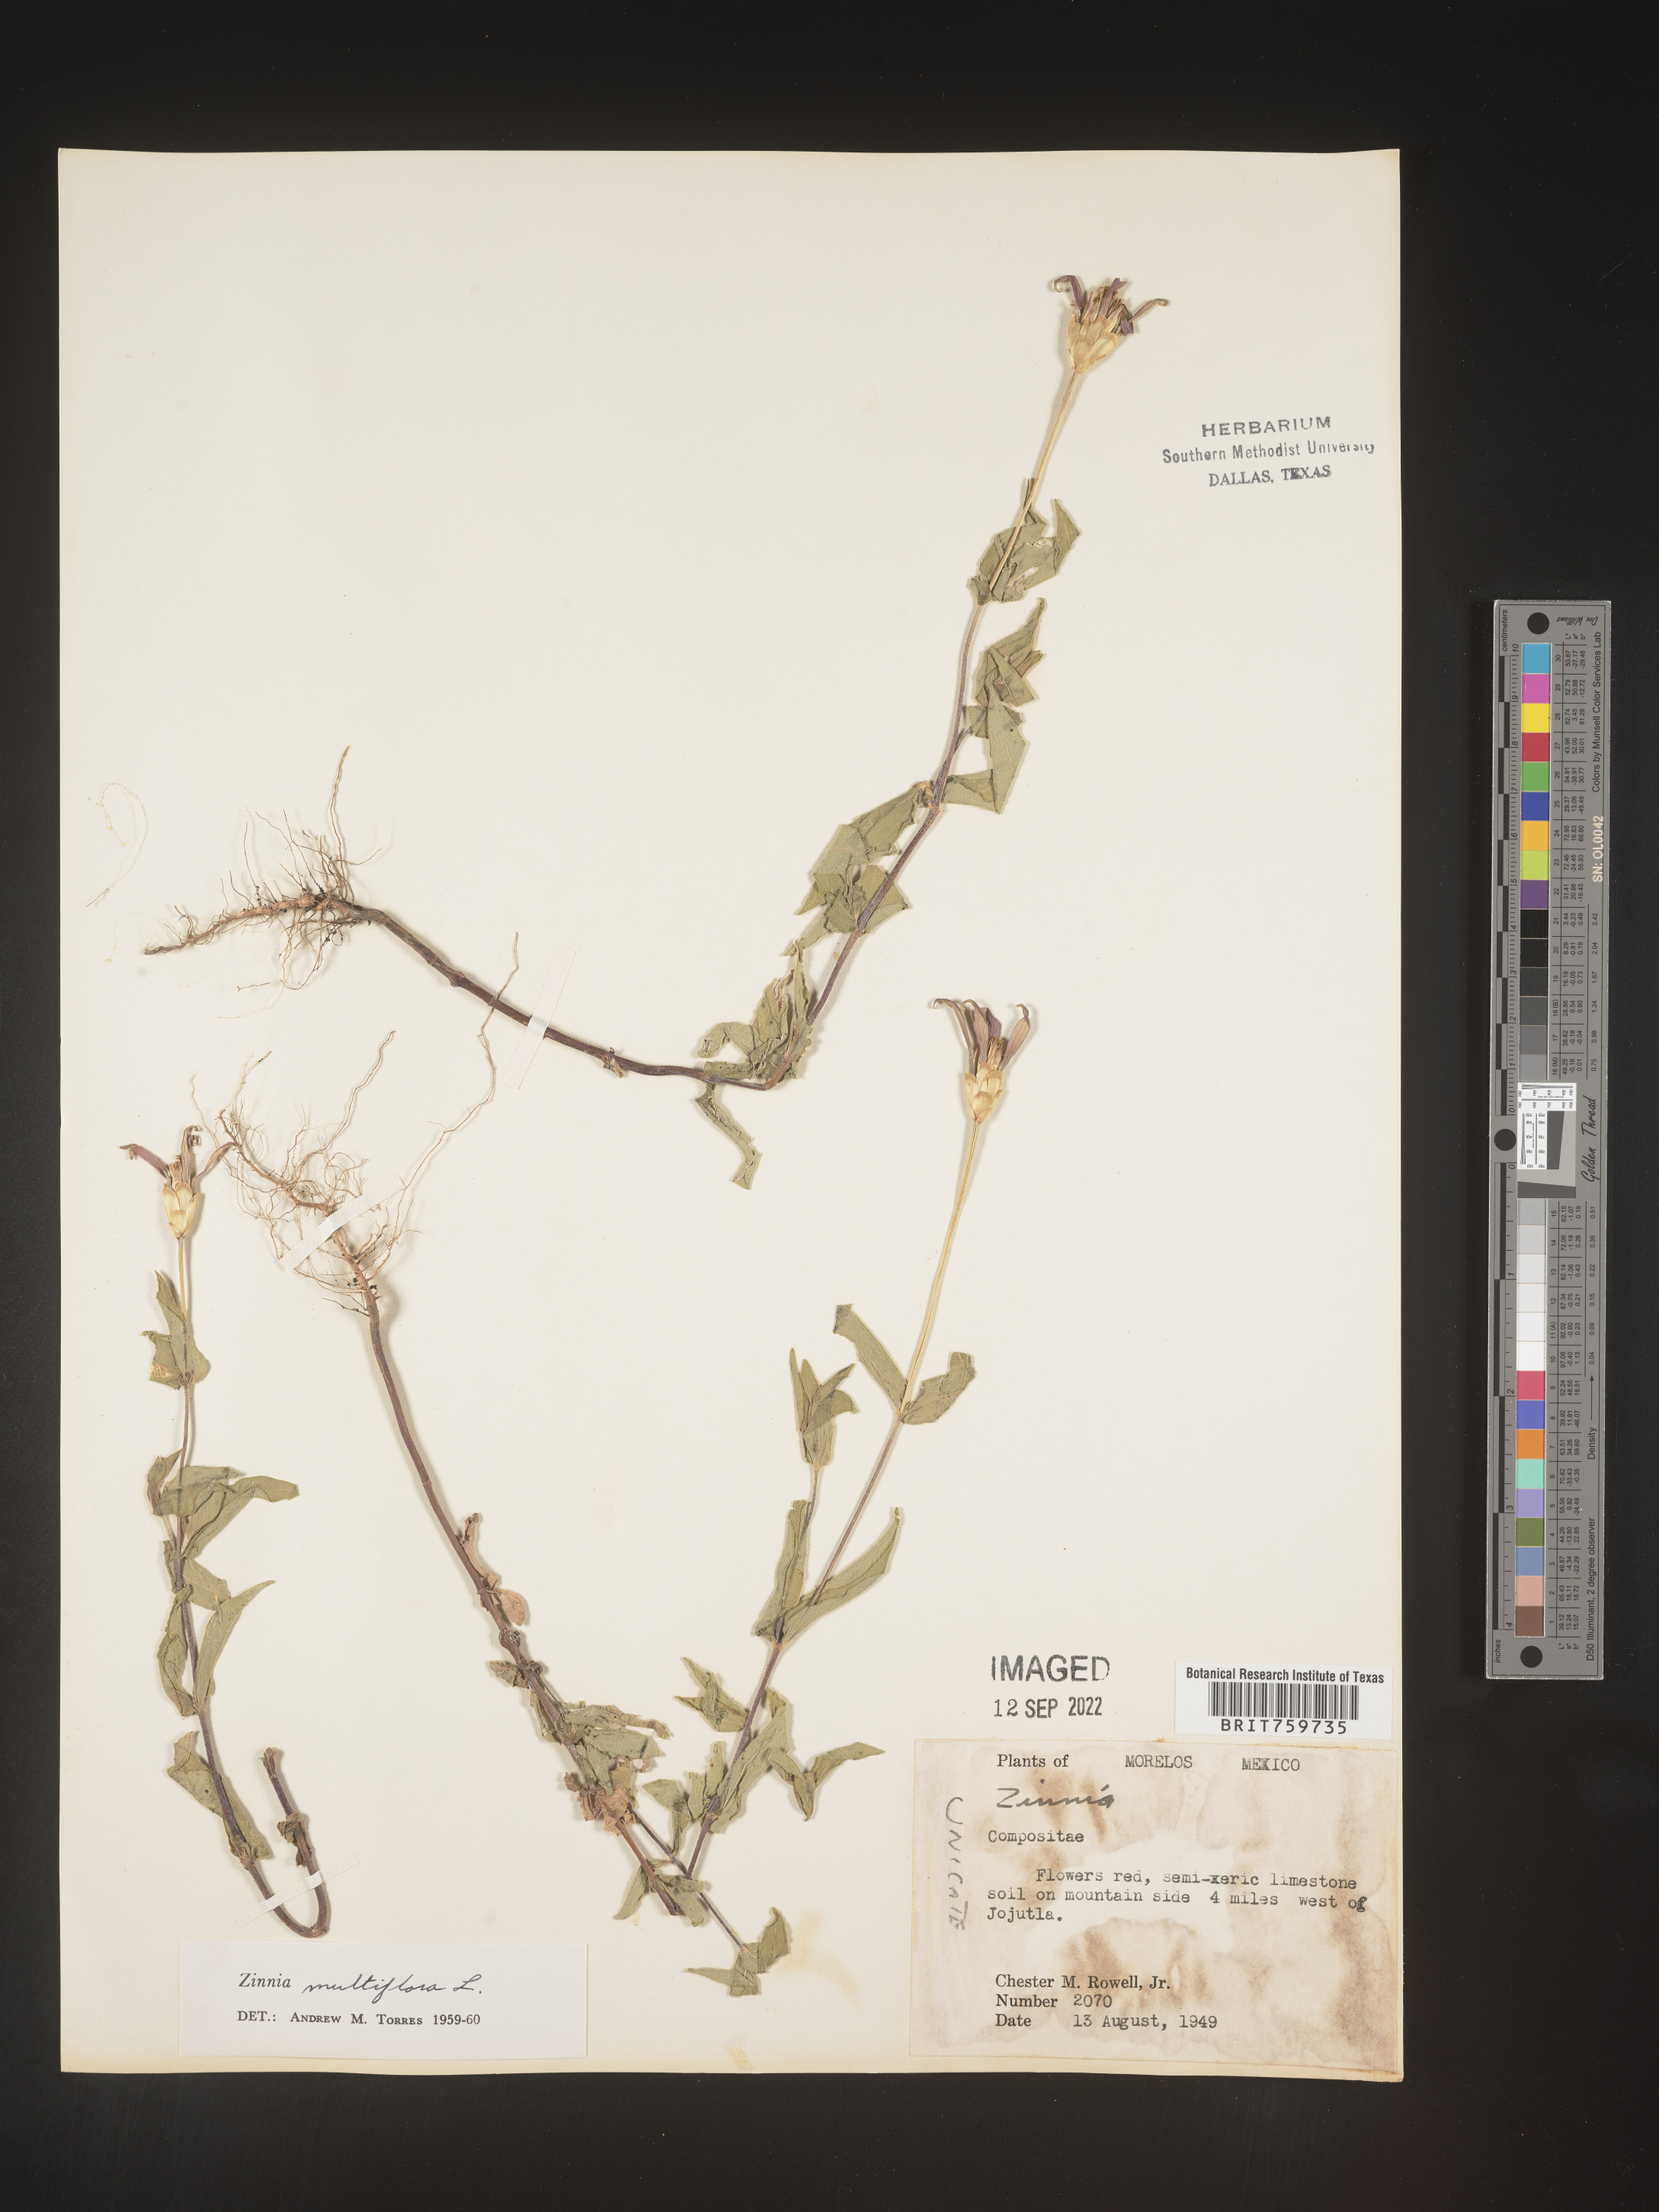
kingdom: Plantae
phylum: Tracheophyta
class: Magnoliopsida
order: Asterales
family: Asteraceae
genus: Zinnia
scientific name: Zinnia
